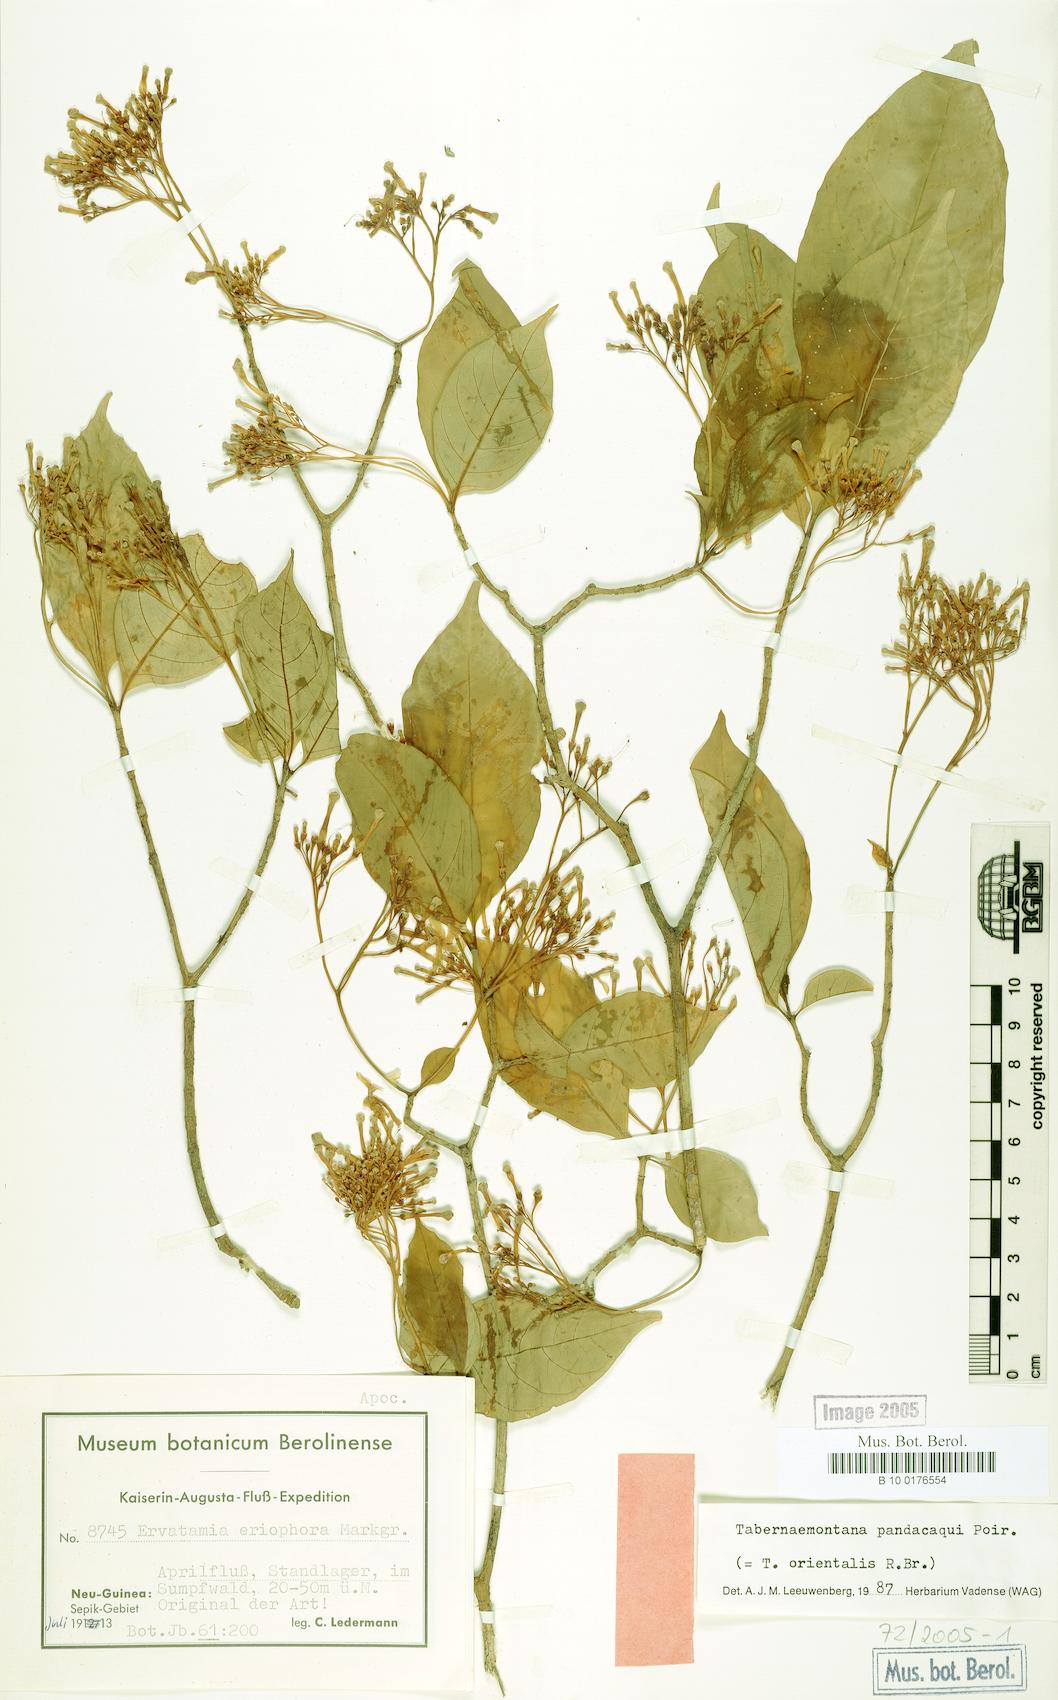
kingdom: Plantae
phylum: Tracheophyta
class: Magnoliopsida
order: Gentianales
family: Apocynaceae
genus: Tabernaemontana
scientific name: Tabernaemontana pandacaqui
